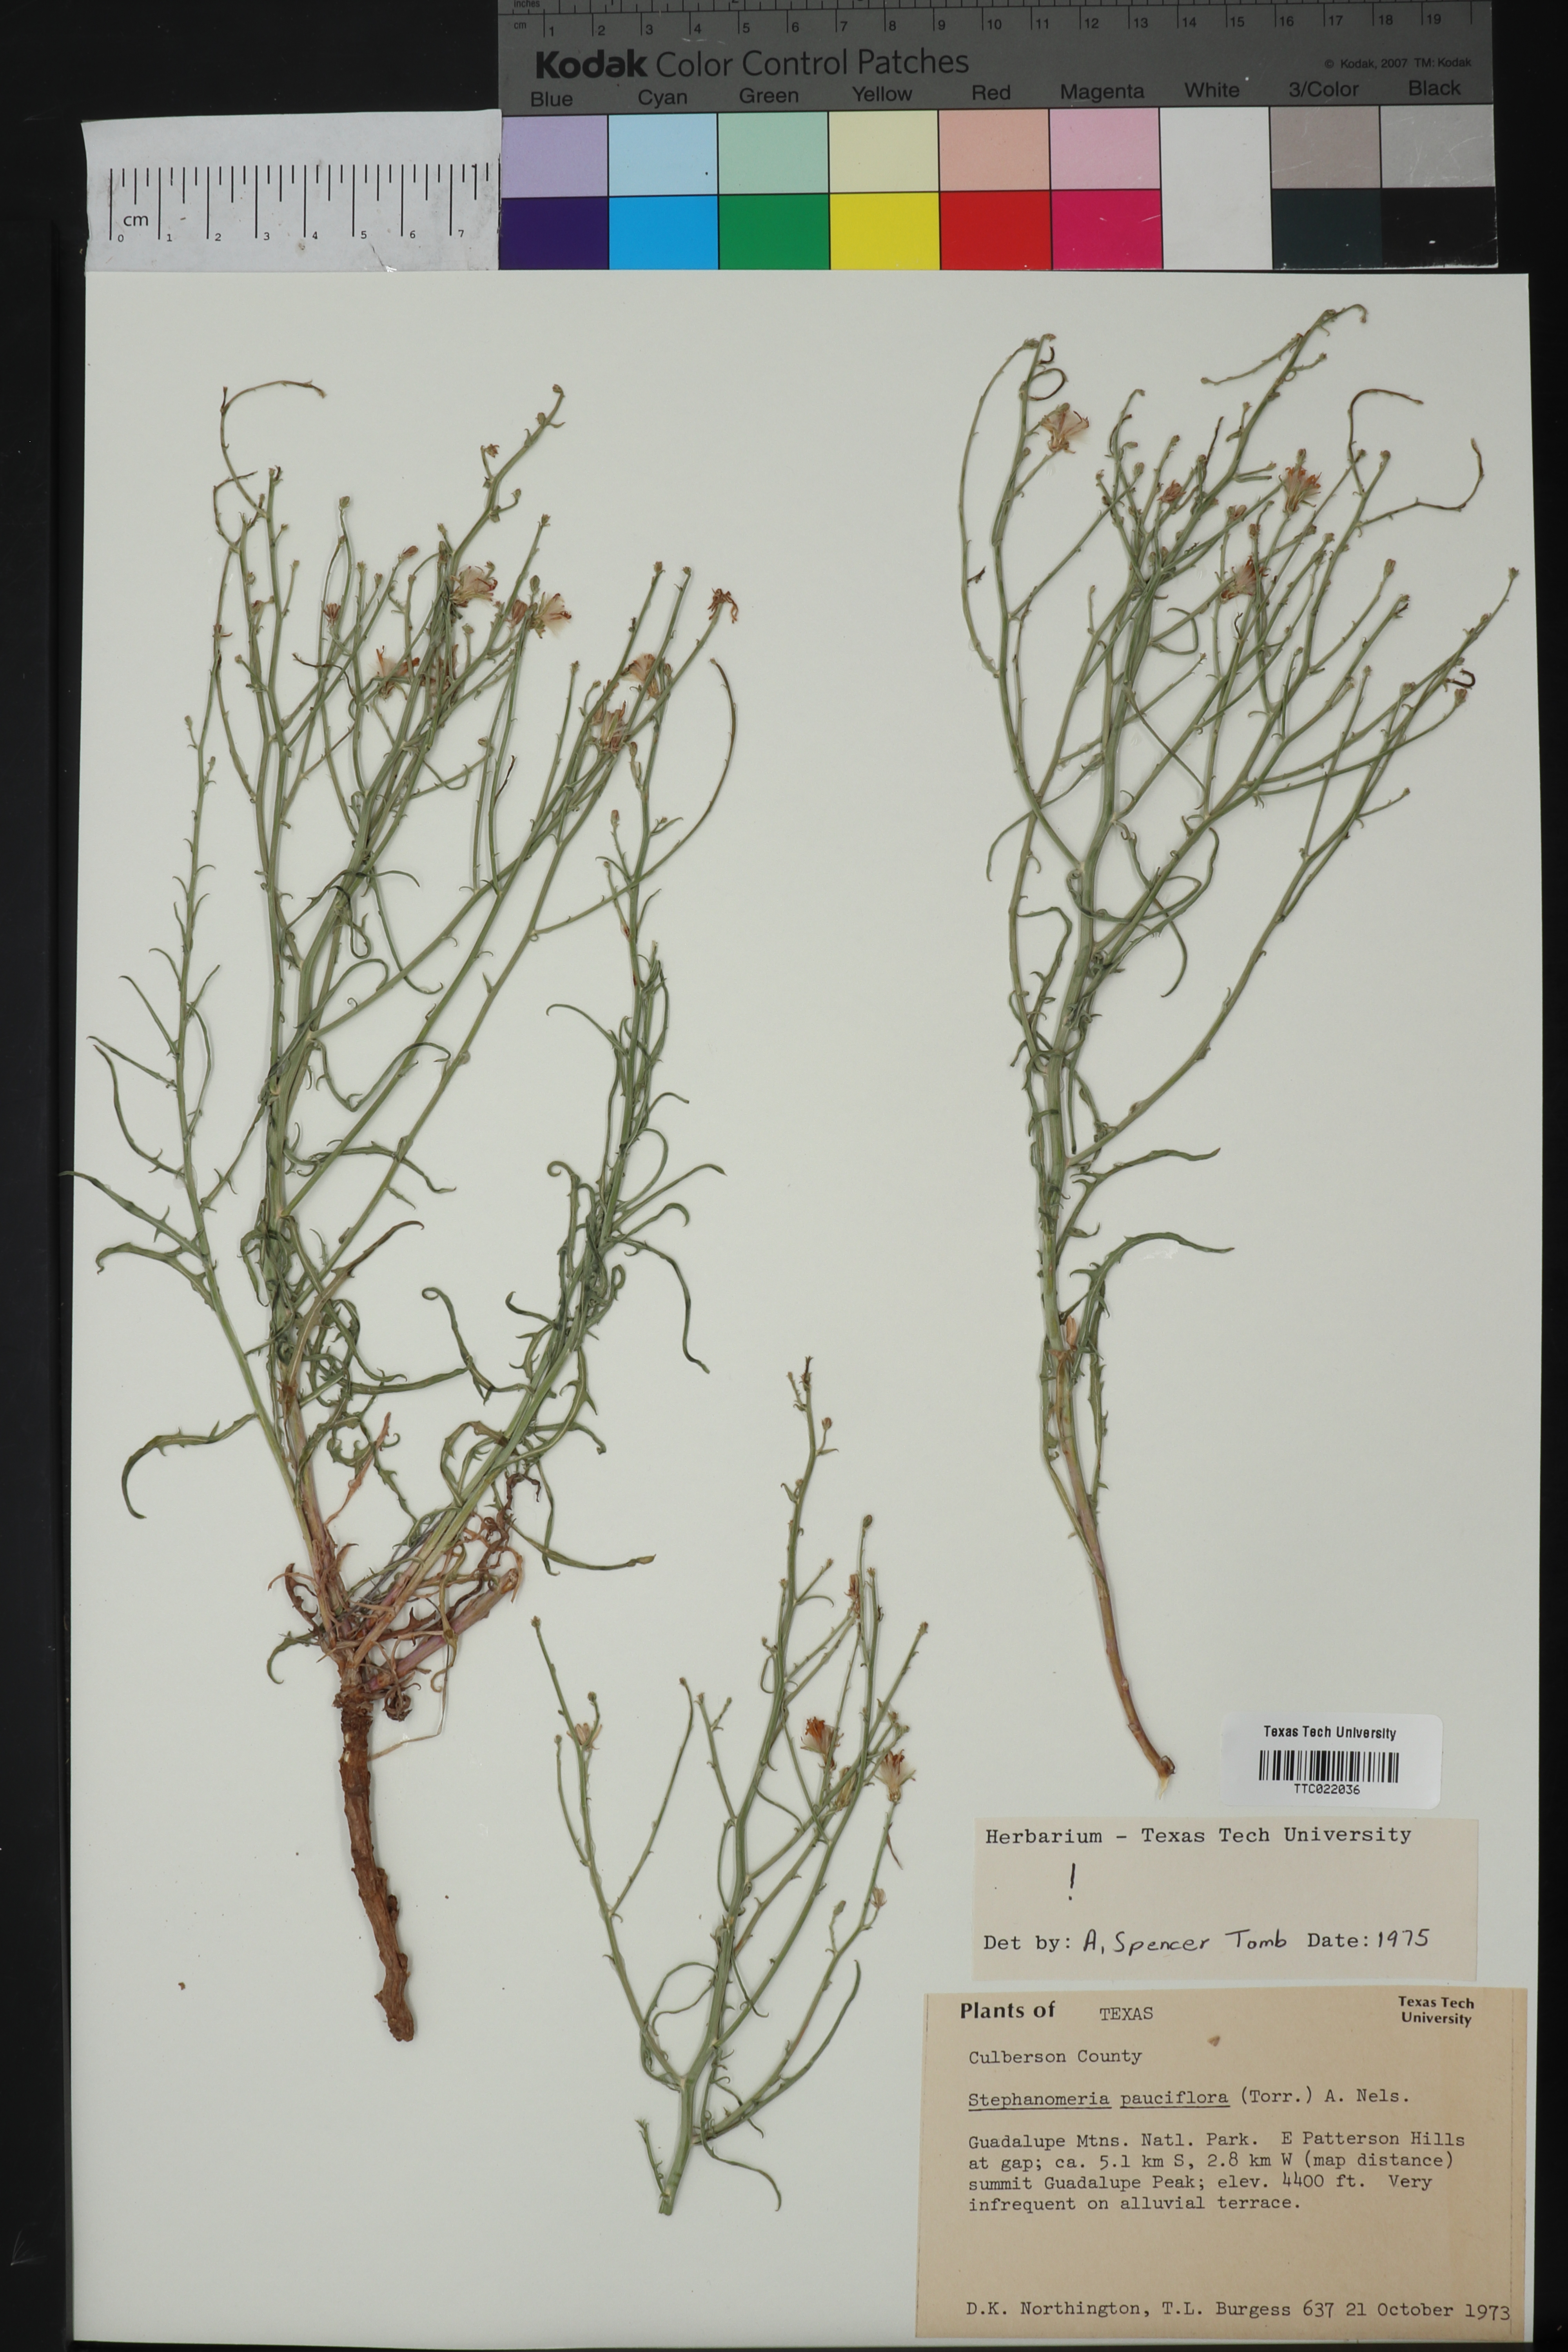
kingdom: Plantae
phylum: Tracheophyta
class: Magnoliopsida
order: Asterales
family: Asteraceae
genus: Stephanomeria
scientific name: Stephanomeria pauciflora
